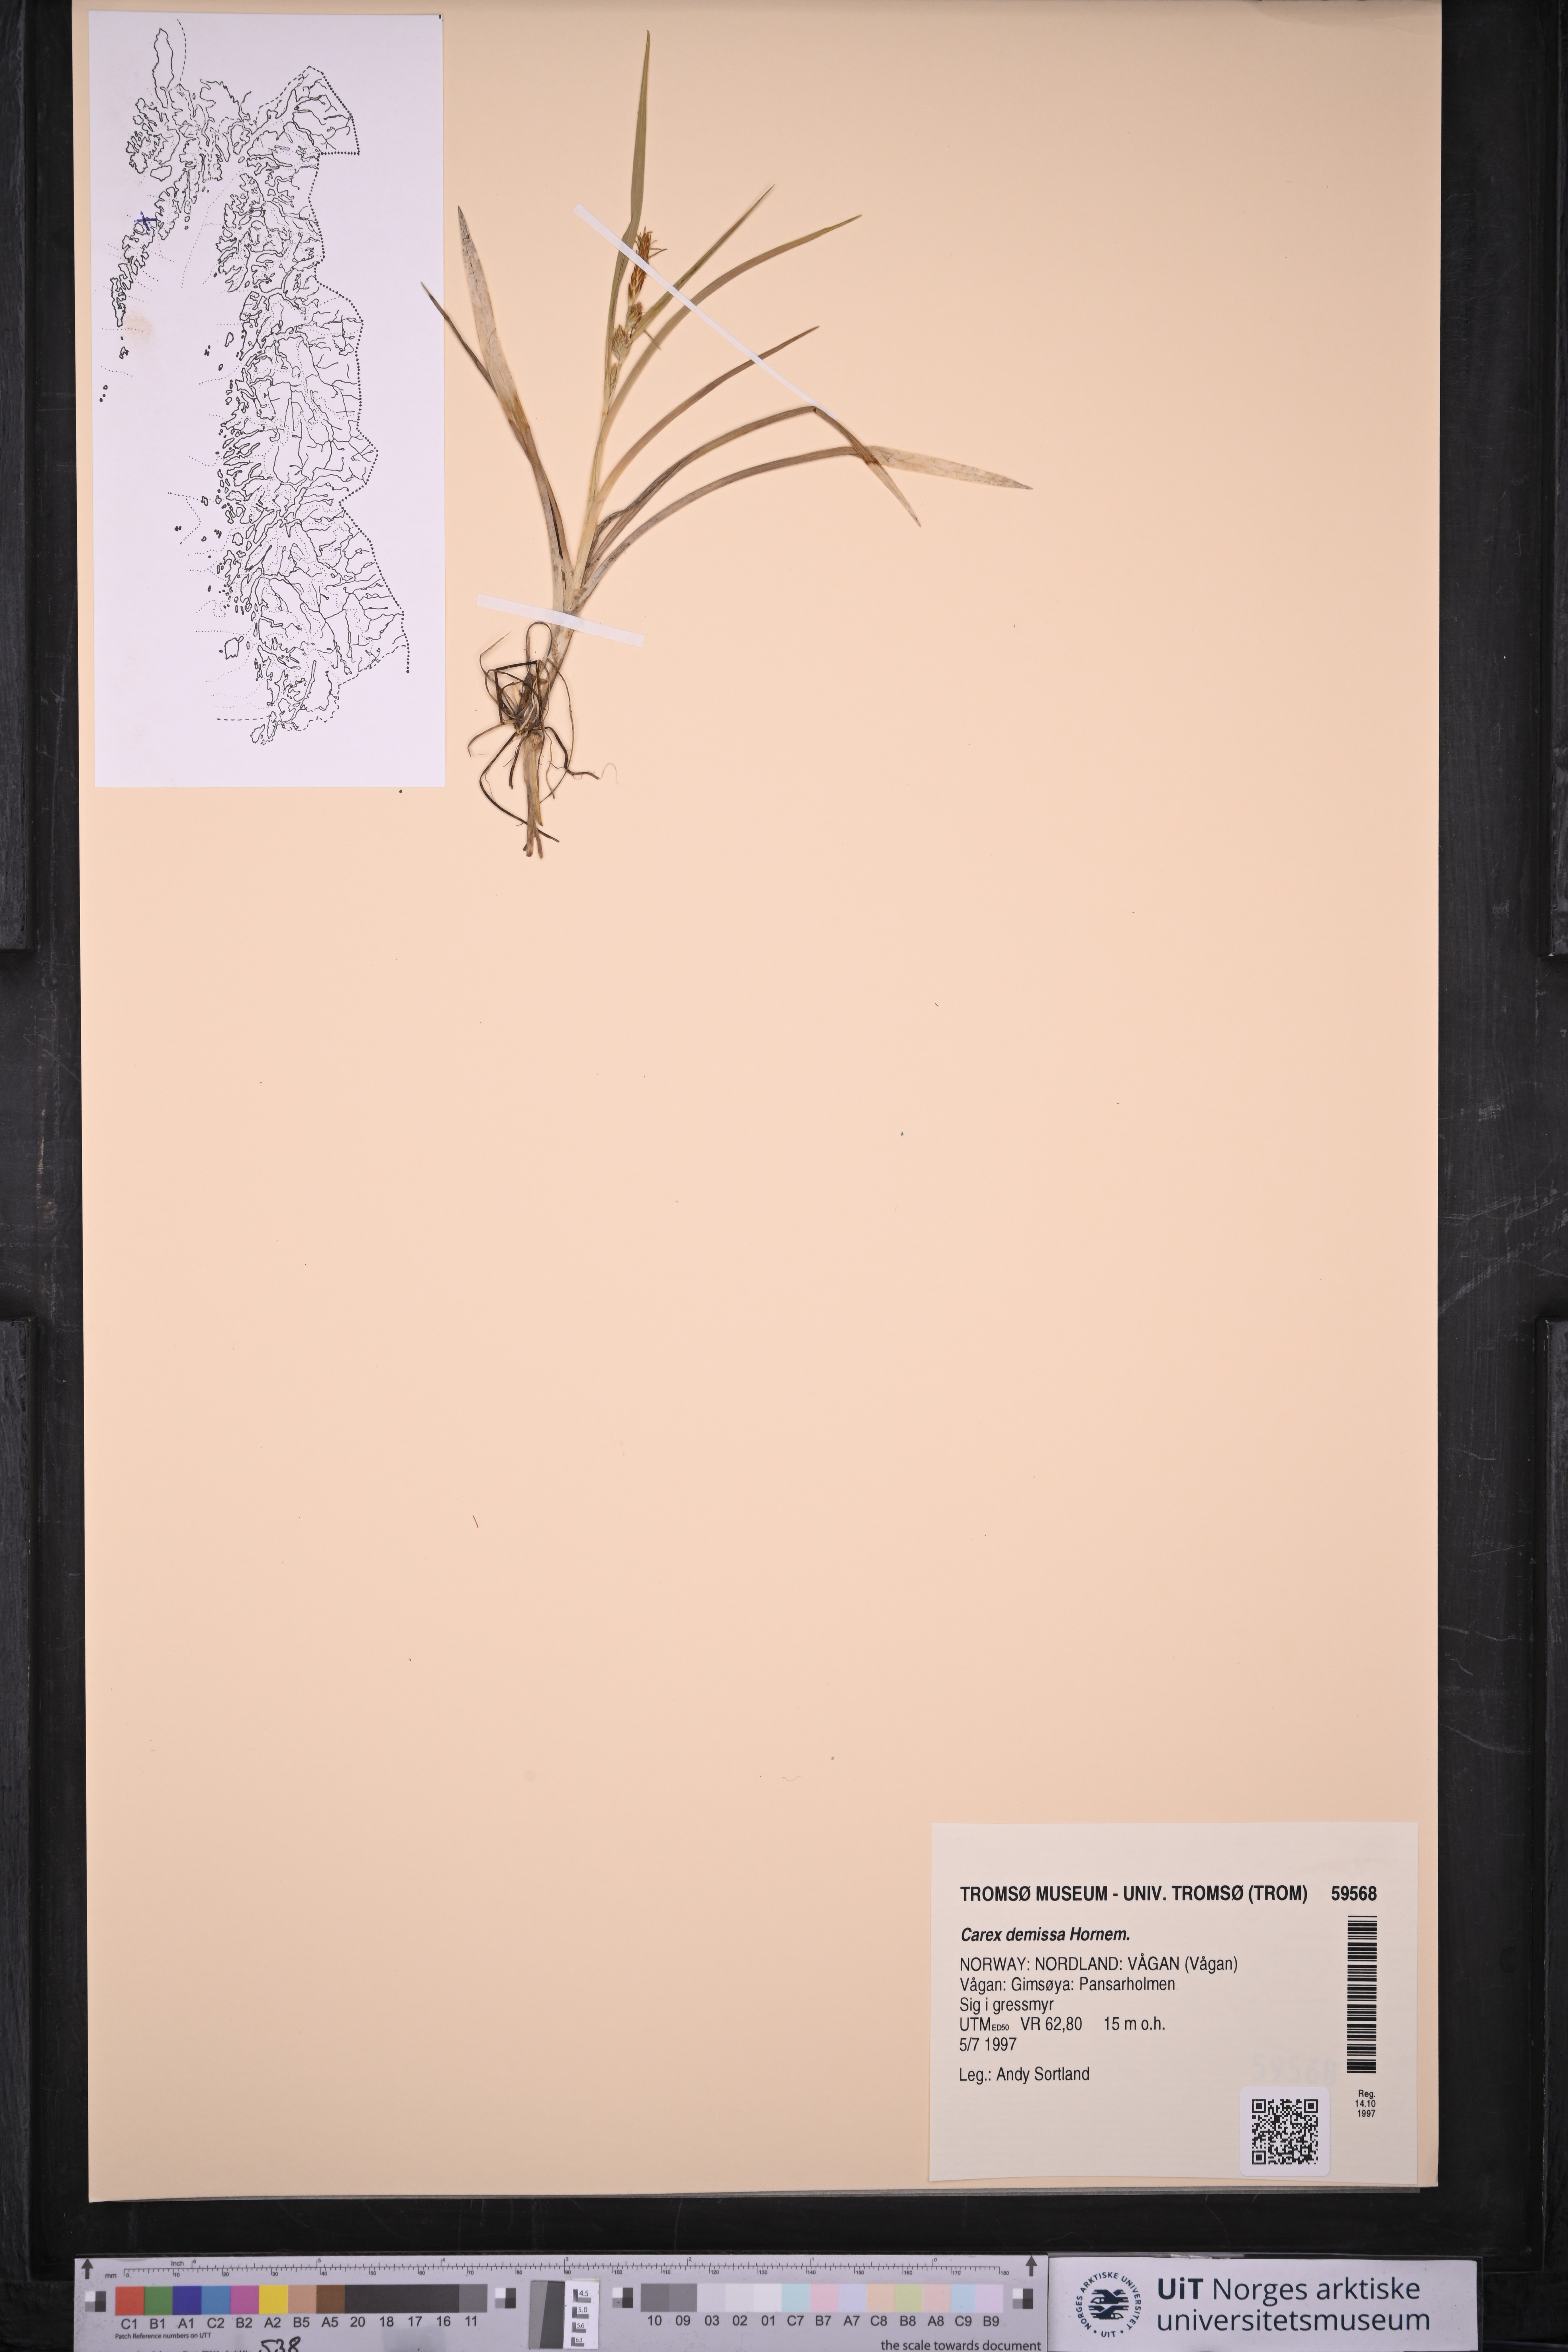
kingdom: Plantae
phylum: Tracheophyta
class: Liliopsida
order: Poales
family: Cyperaceae
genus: Carex
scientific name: Carex demissa
